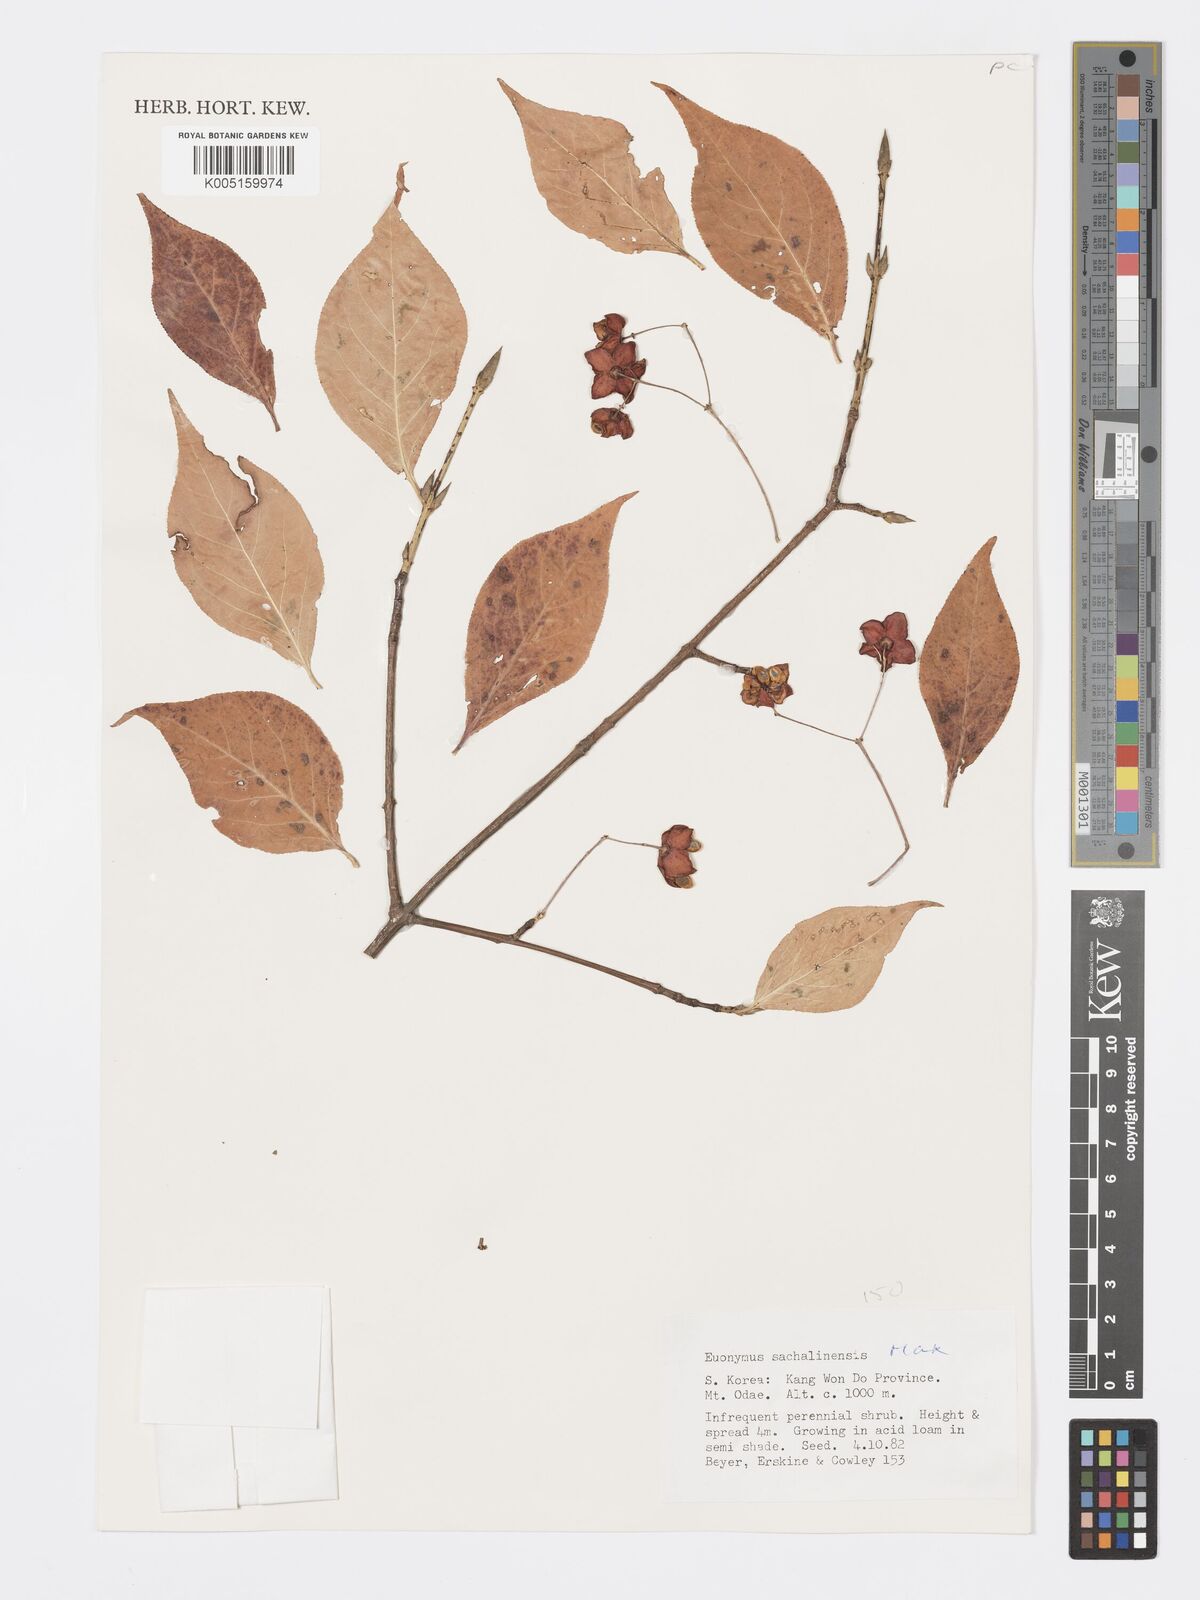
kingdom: Plantae
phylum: Tracheophyta
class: Magnoliopsida
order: Celastrales
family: Celastraceae
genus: Euonymus
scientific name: Euonymus sachalinensis
